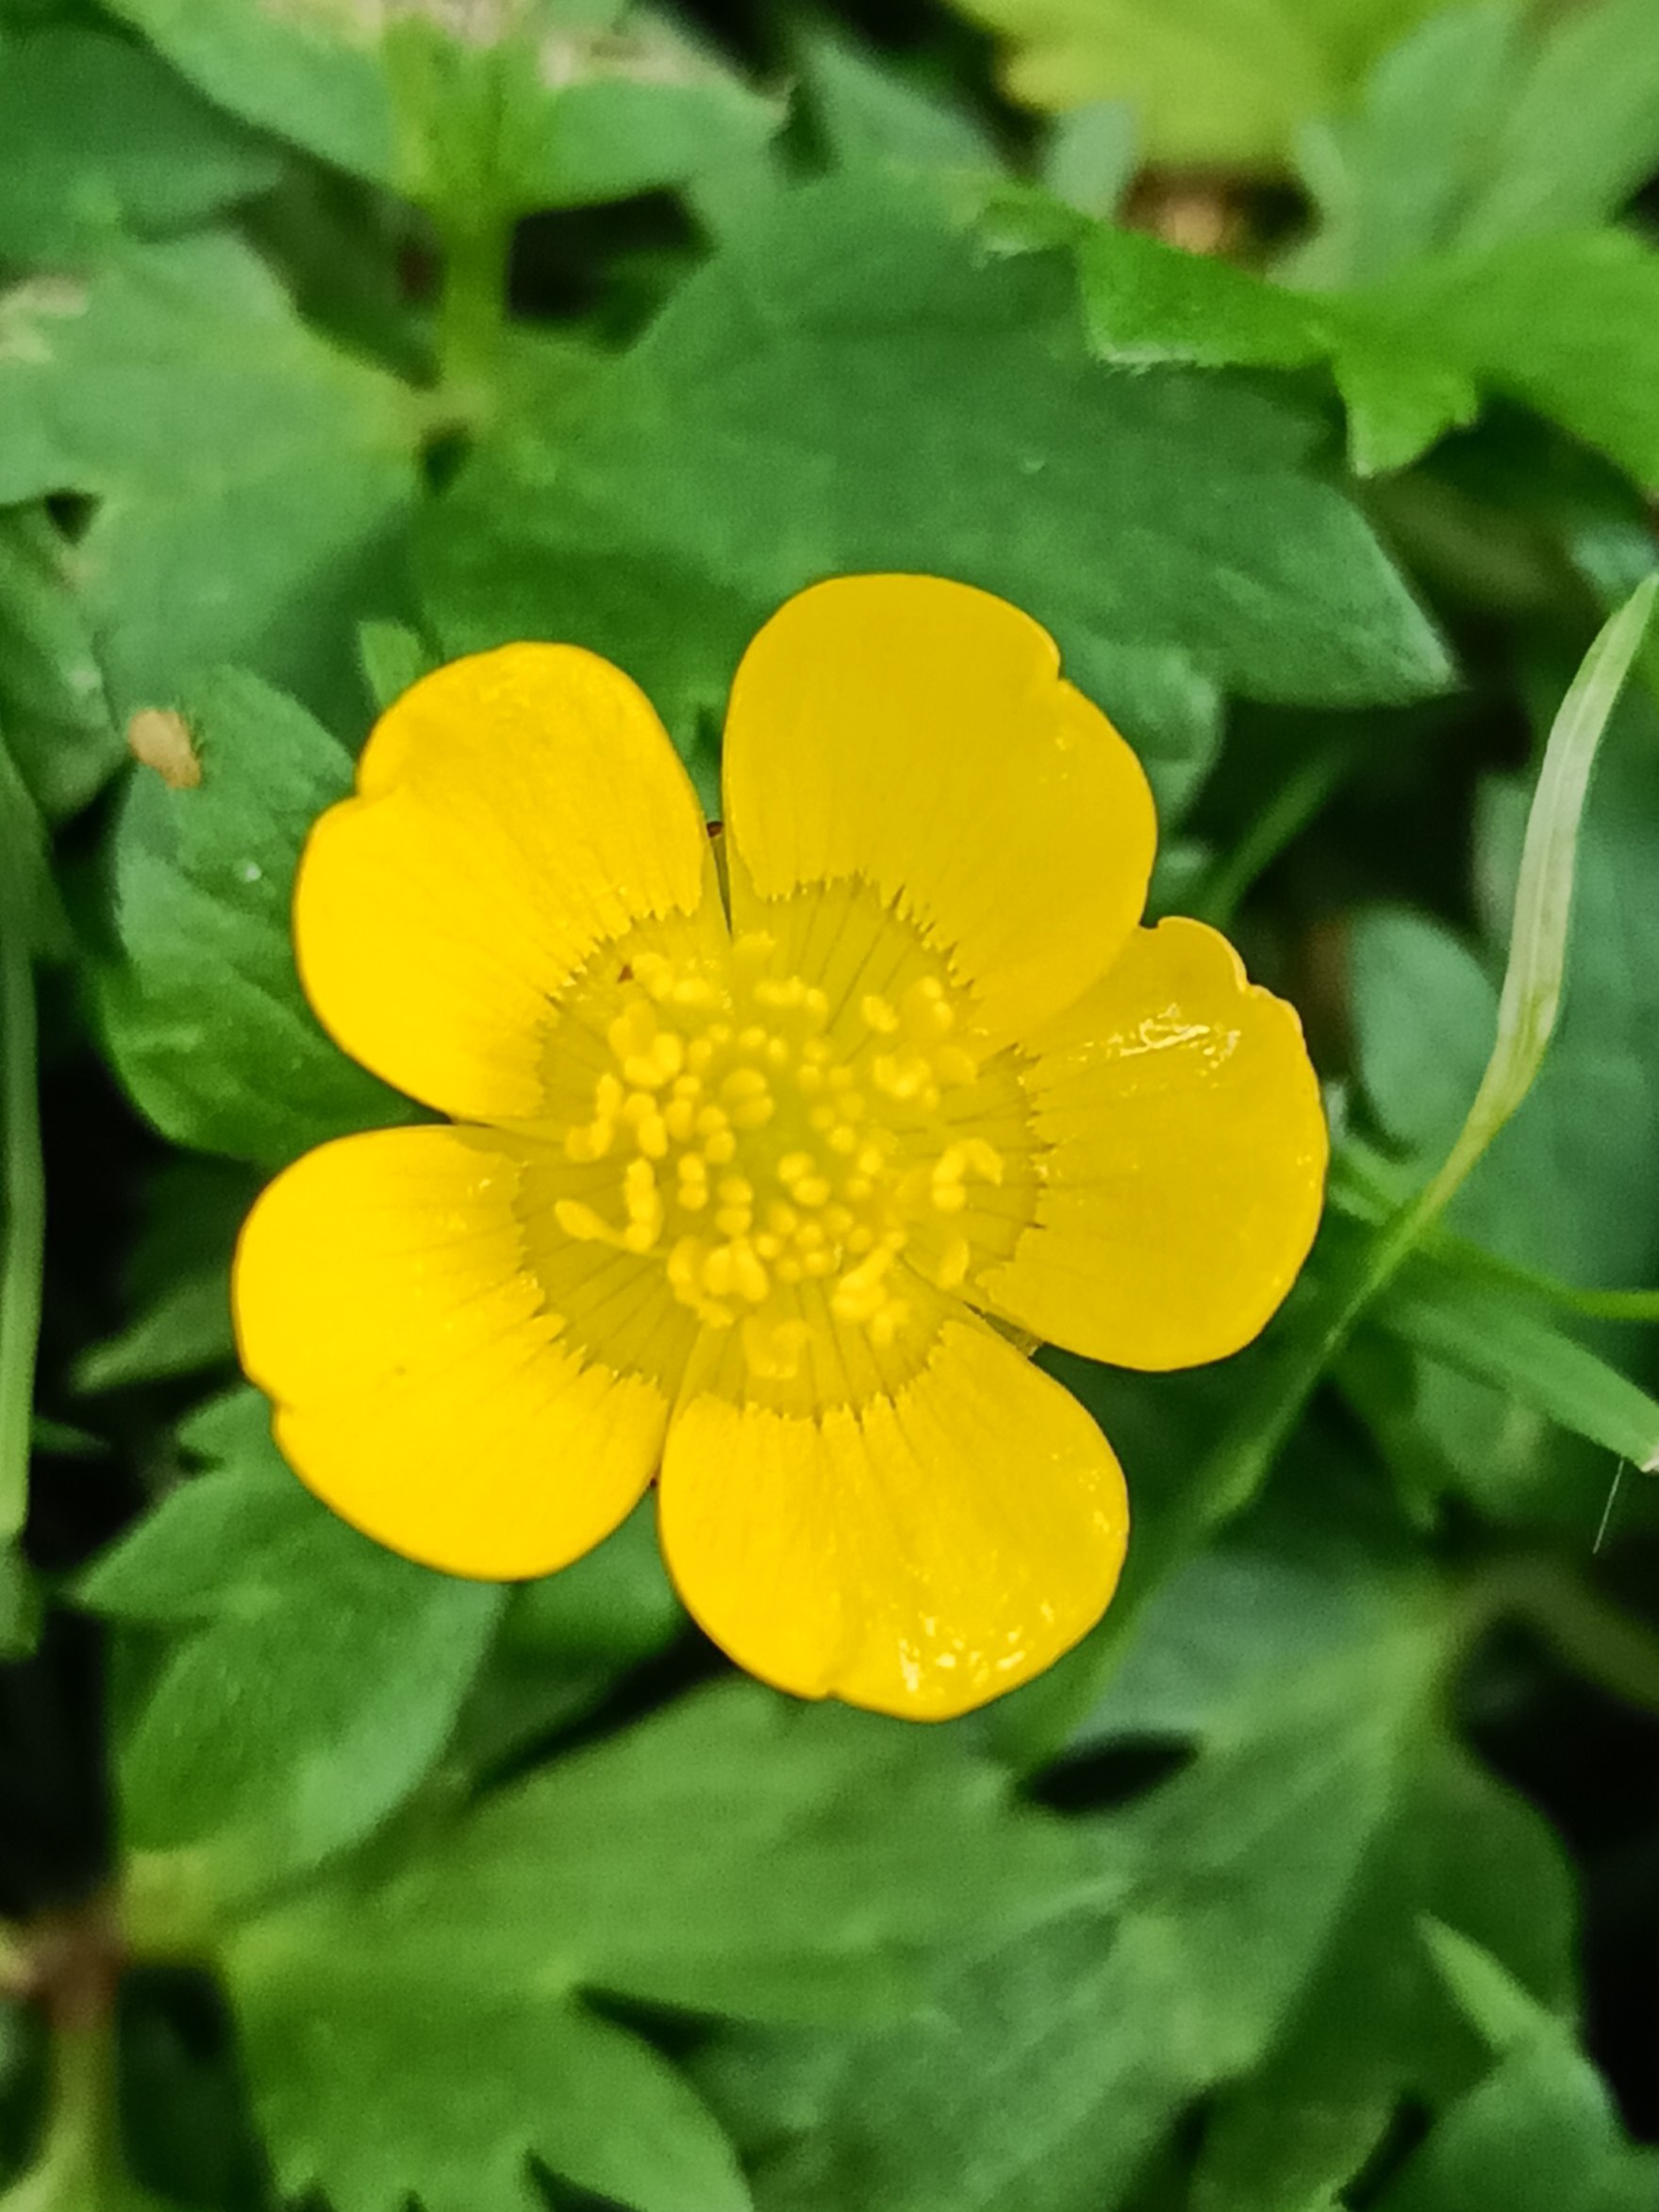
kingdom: Plantae
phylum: Tracheophyta
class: Magnoliopsida
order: Ranunculales
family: Ranunculaceae
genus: Ranunculus
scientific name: Ranunculus
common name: Ranunkelslægten
